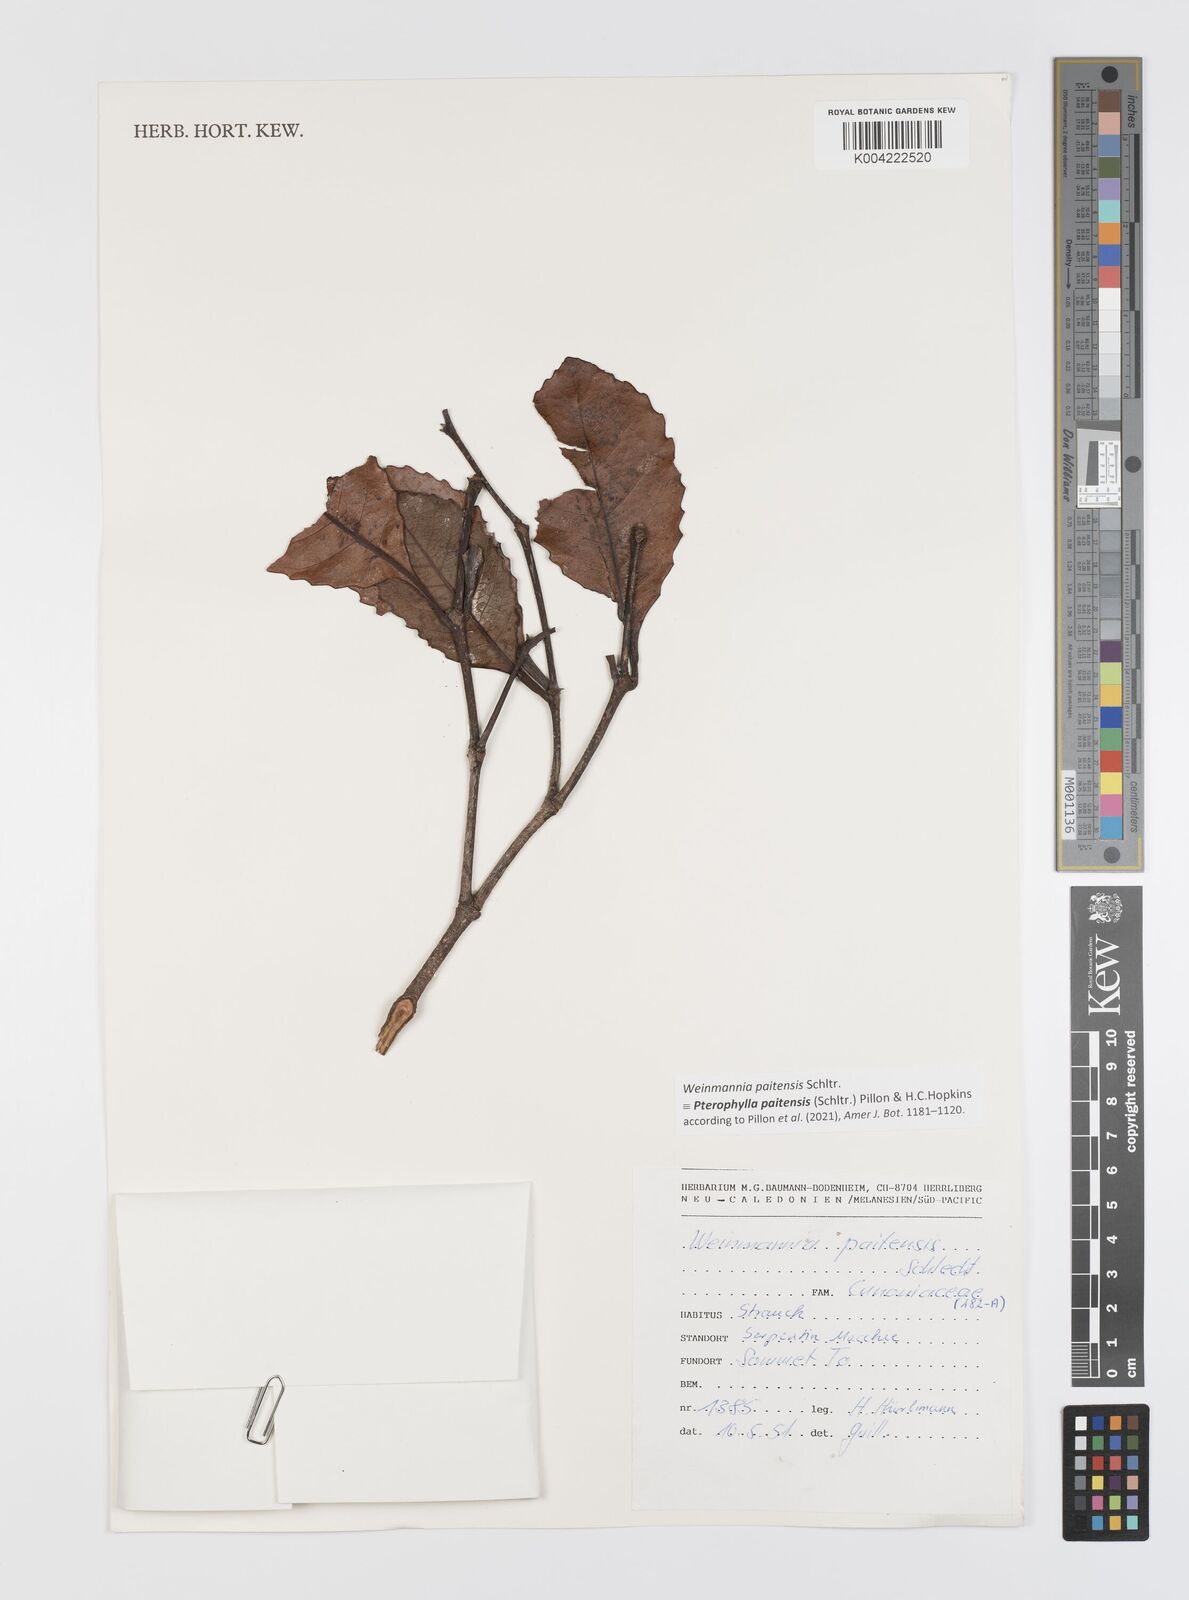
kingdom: Plantae
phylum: Tracheophyta
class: Magnoliopsida
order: Oxalidales
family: Cunoniaceae
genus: Pterophylla
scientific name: Pterophylla paitensis
